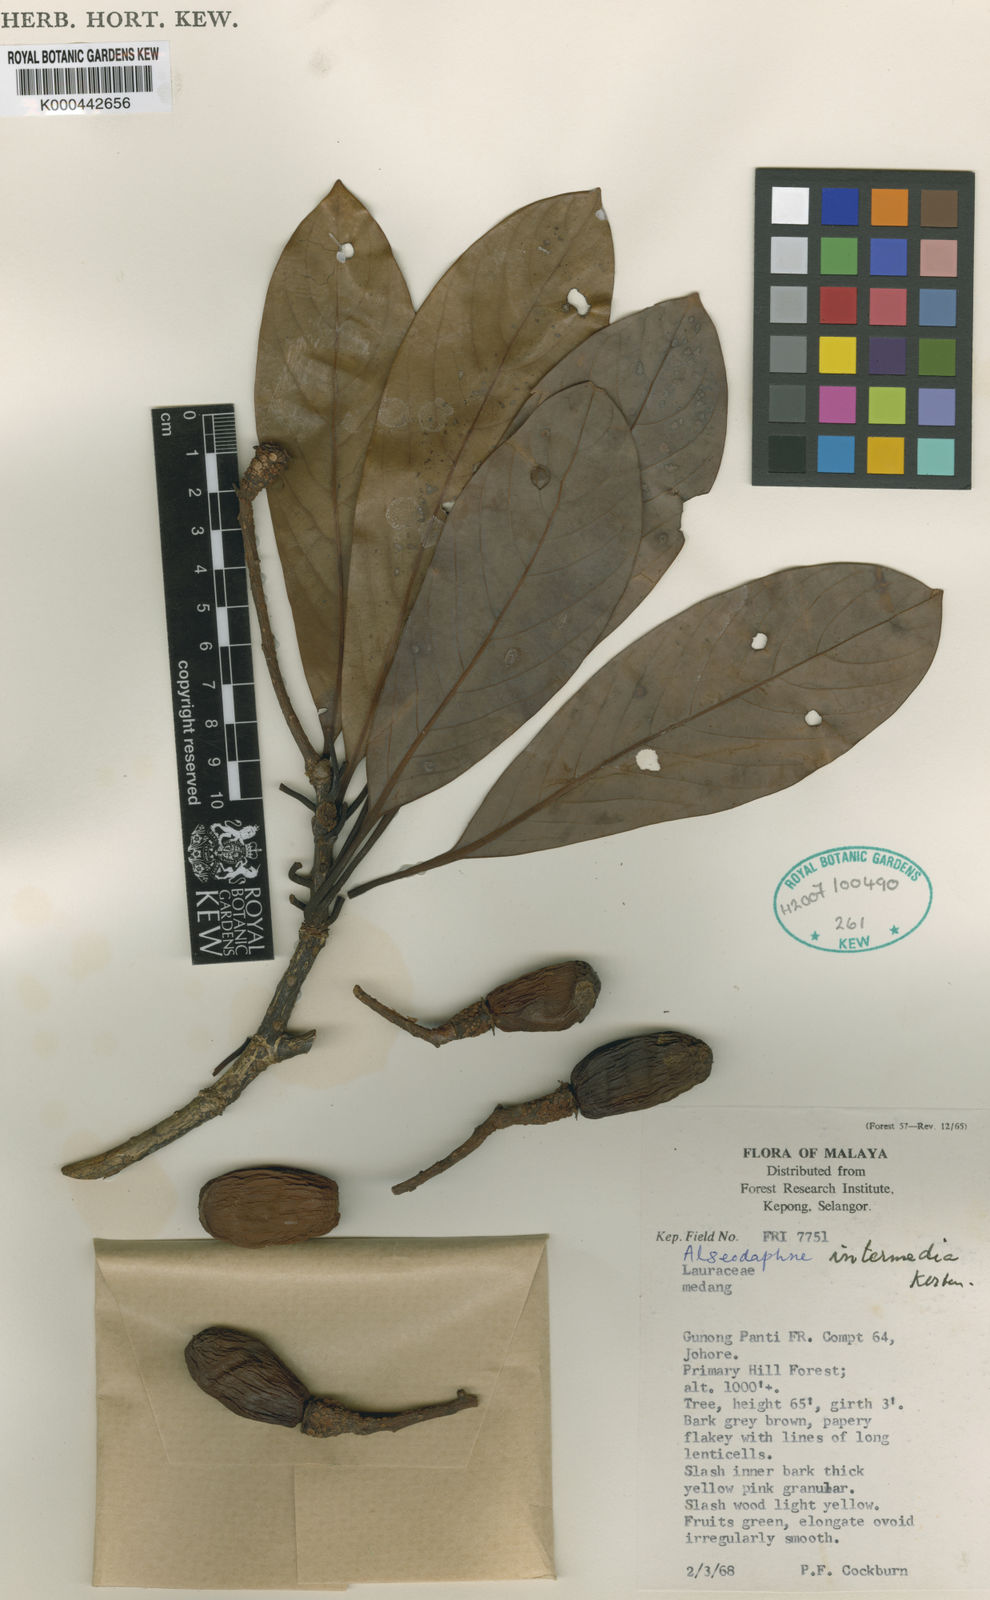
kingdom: Plantae
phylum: Tracheophyta
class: Magnoliopsida
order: Laurales
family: Lauraceae
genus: Alseodaphne
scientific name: Alseodaphne intermedia
